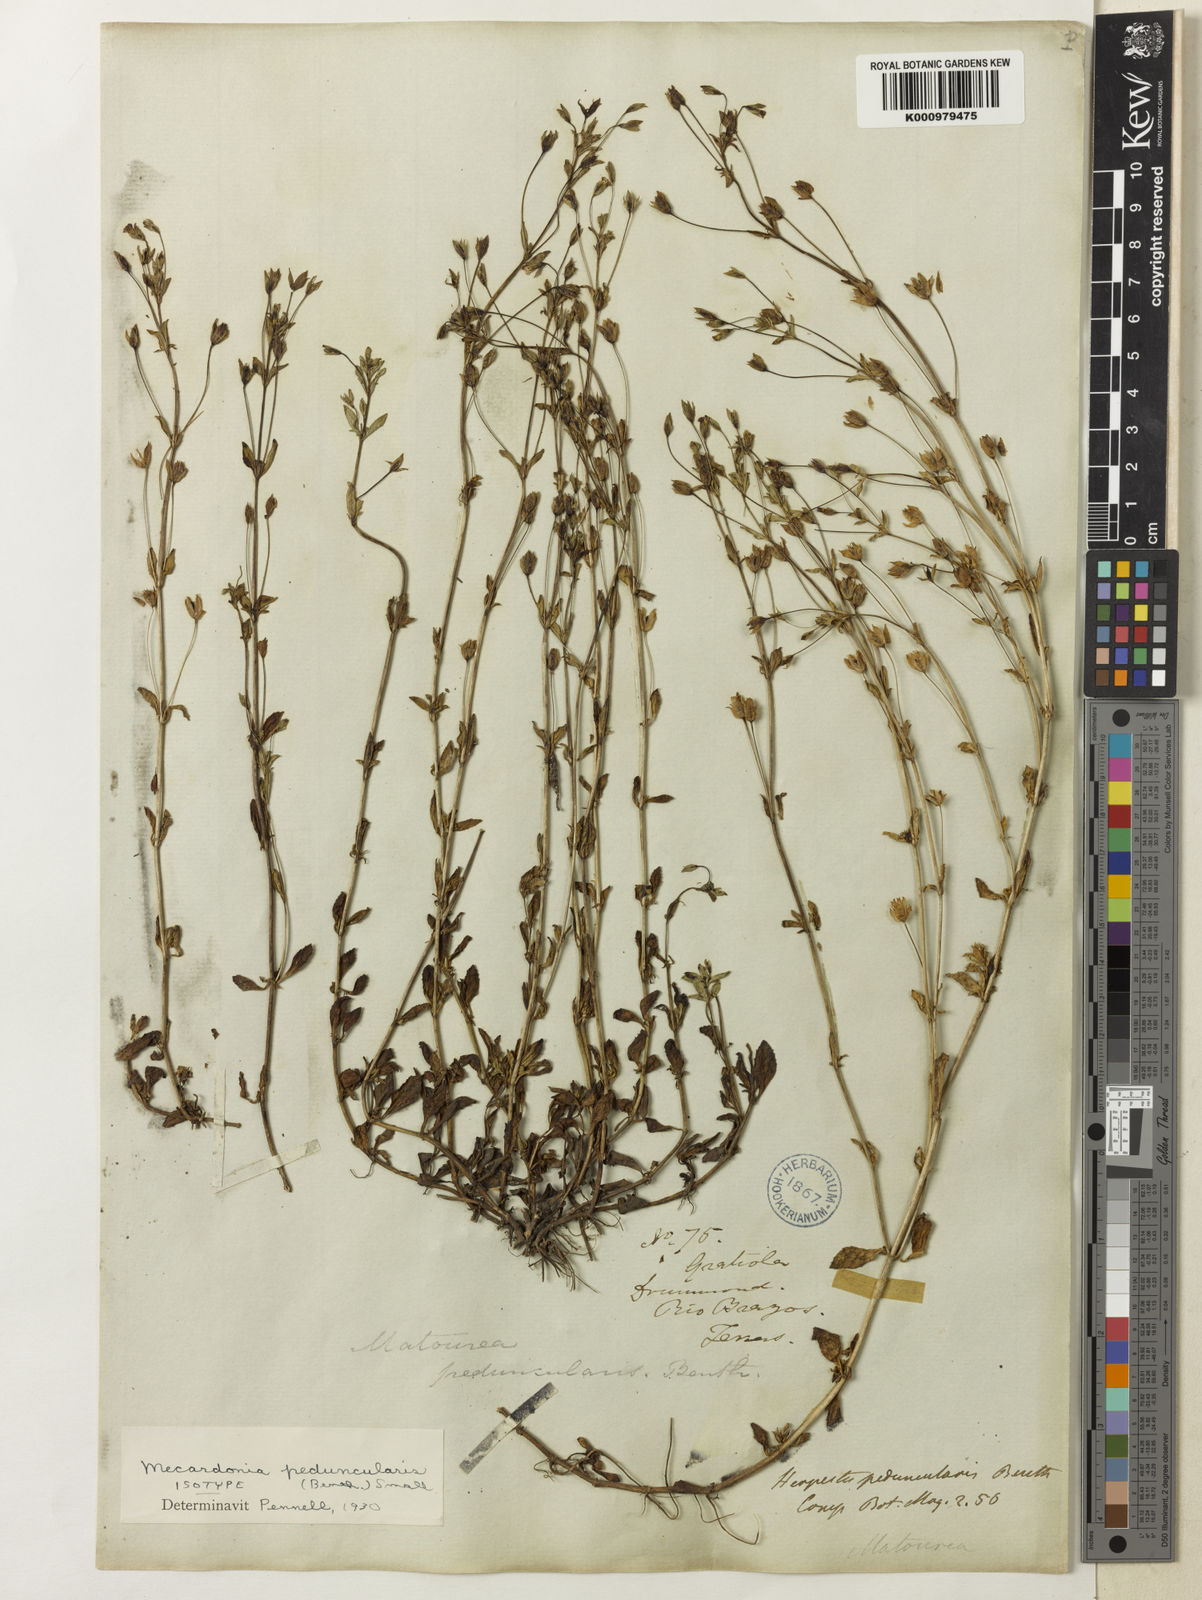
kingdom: Plantae
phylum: Tracheophyta
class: Magnoliopsida
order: Lamiales
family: Plantaginaceae
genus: Mecardonia
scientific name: Mecardonia procumbens
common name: Baby jump-up
